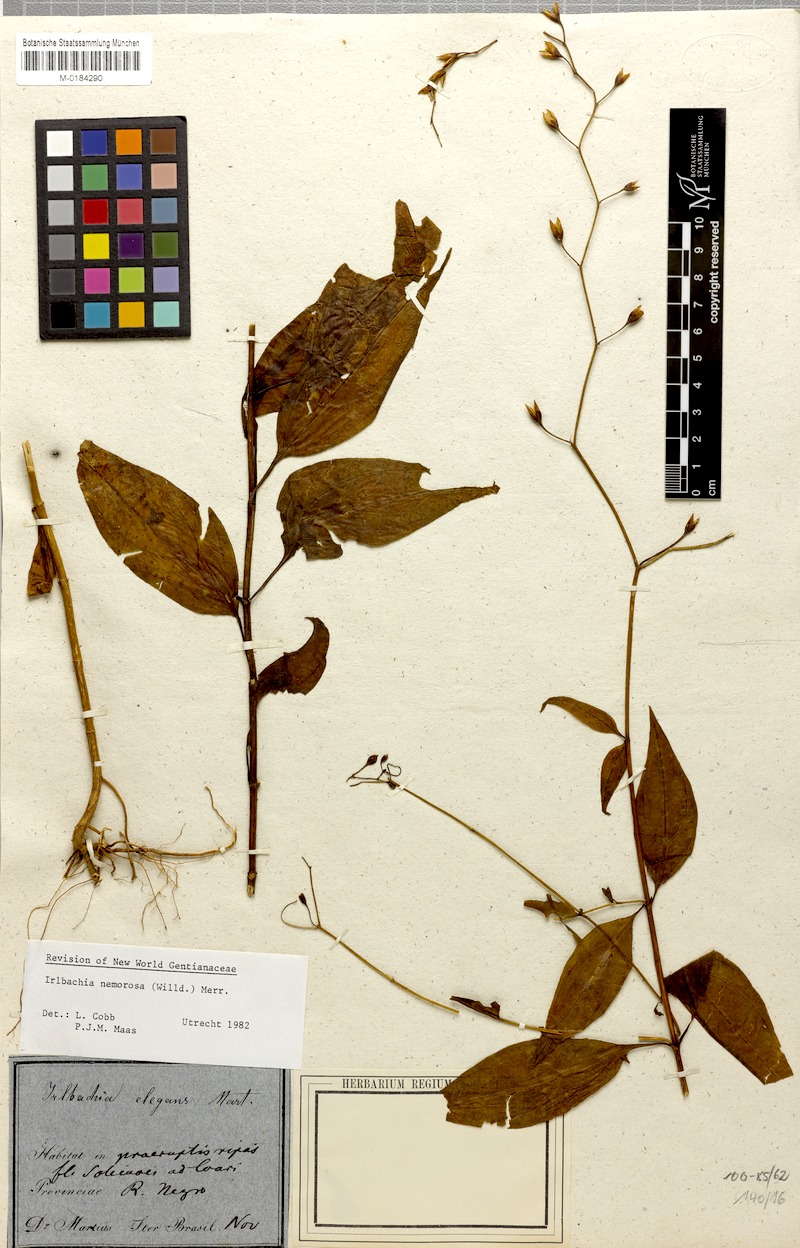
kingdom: Plantae
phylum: Tracheophyta
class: Magnoliopsida
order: Gentianales
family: Gentianaceae
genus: Irlbachia
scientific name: Irlbachia nemorosa
